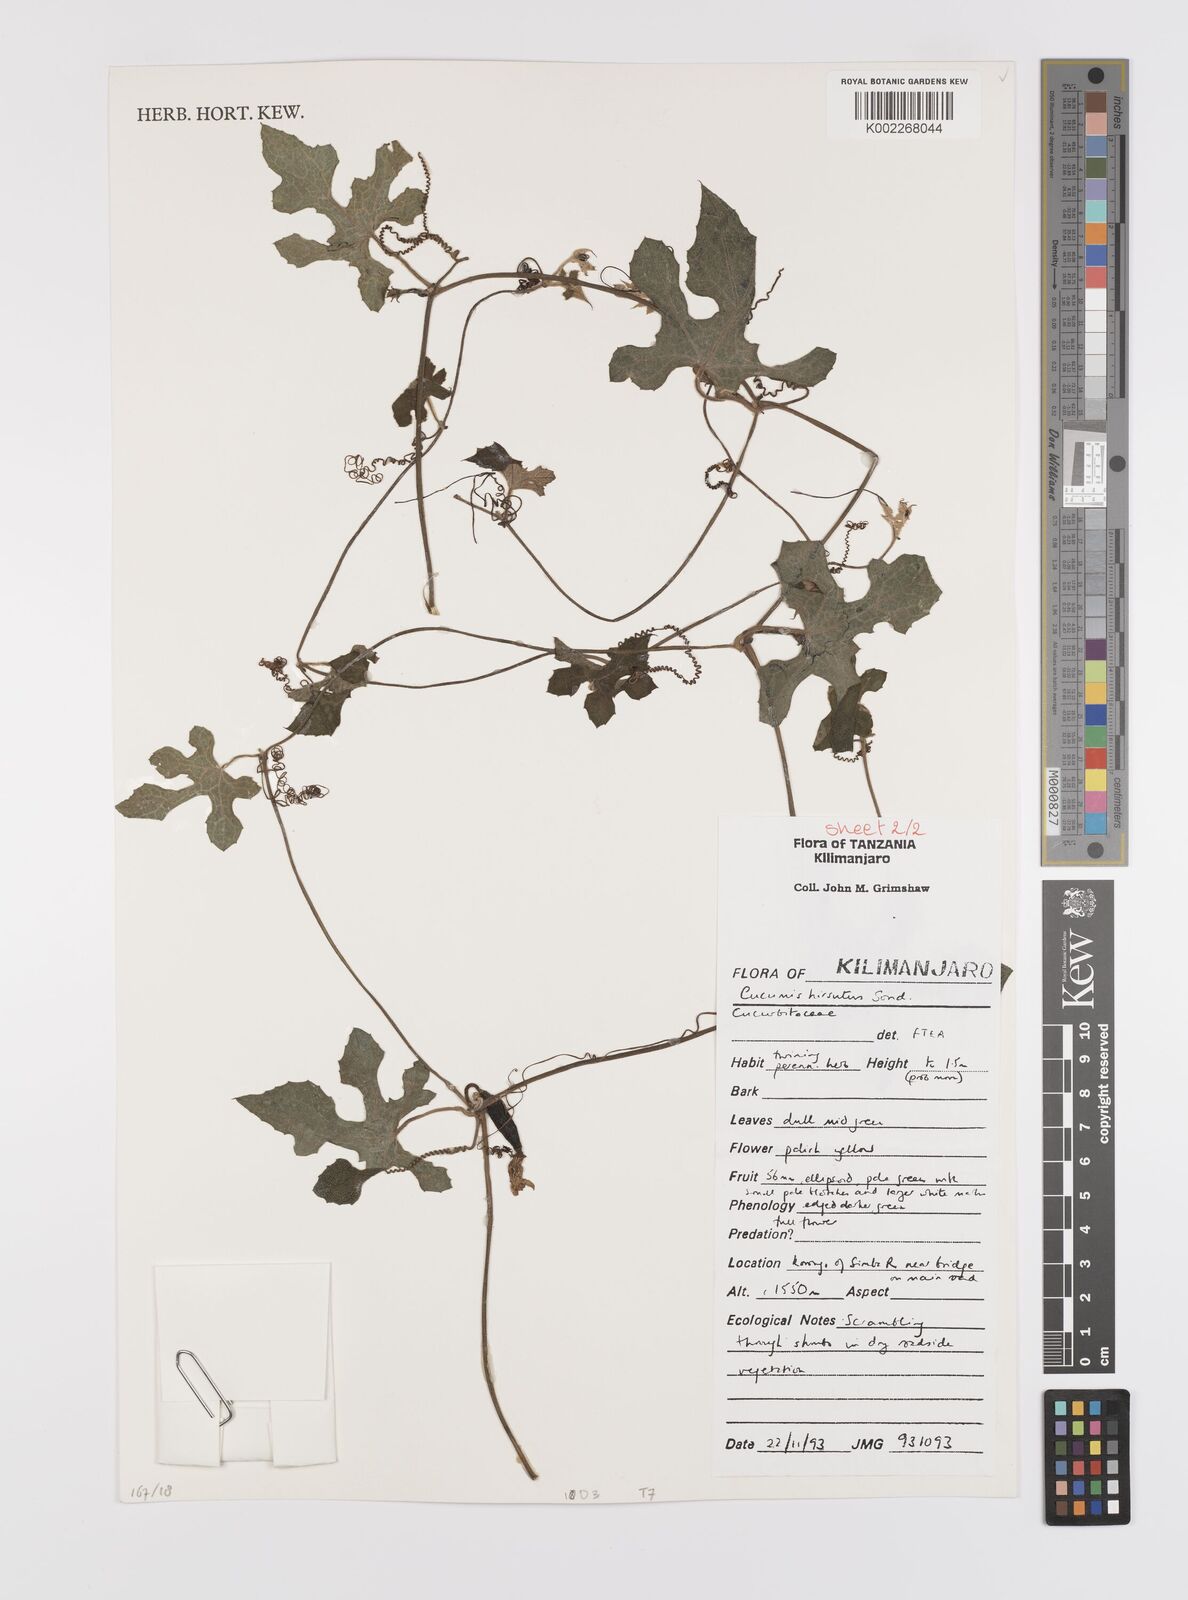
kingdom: Plantae
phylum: Tracheophyta
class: Magnoliopsida
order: Cucurbitales
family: Cucurbitaceae
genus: Cucumis
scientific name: Cucumis hirsutus
